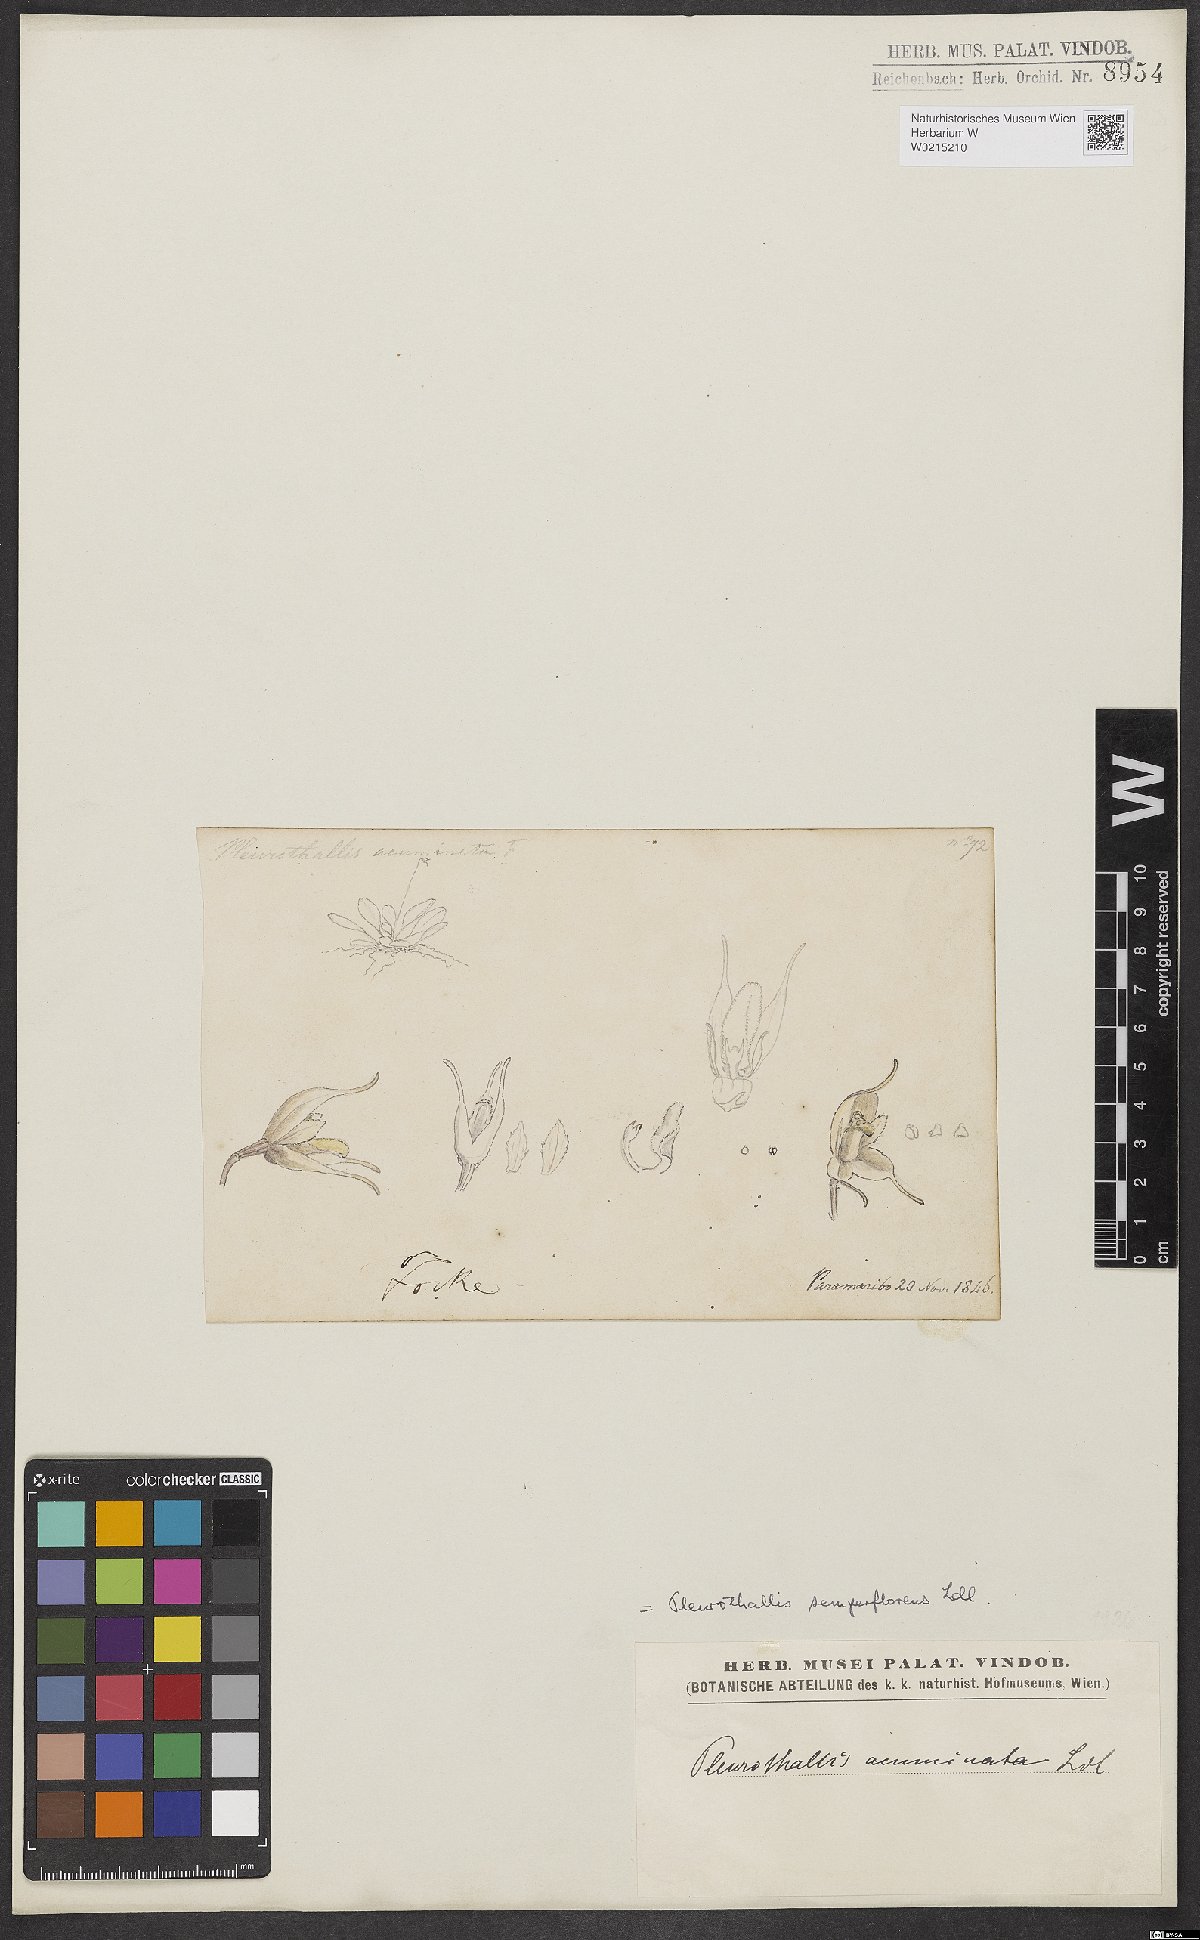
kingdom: Plantae
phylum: Tracheophyta
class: Liliopsida
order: Asparagales
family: Orchidaceae
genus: Stelis
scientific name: Stelis aurea
